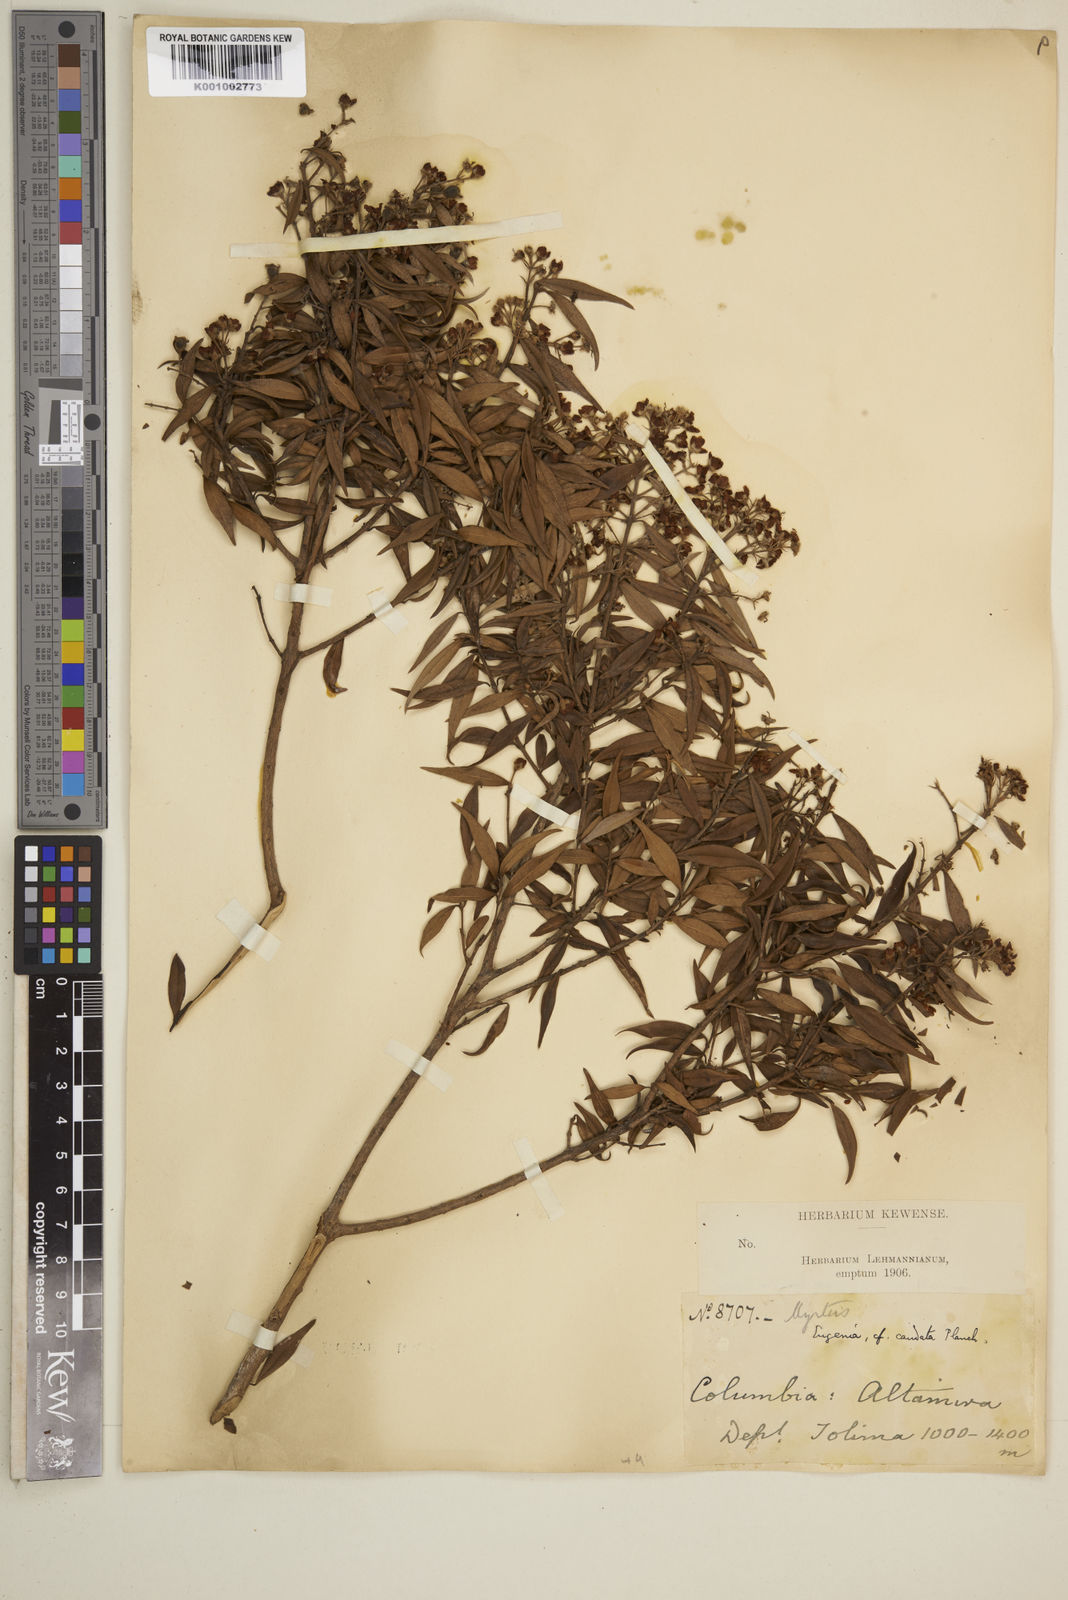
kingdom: Plantae
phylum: Tracheophyta
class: Magnoliopsida
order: Myrtales
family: Myrtaceae
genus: Syzygium
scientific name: Syzygium urophyllum
